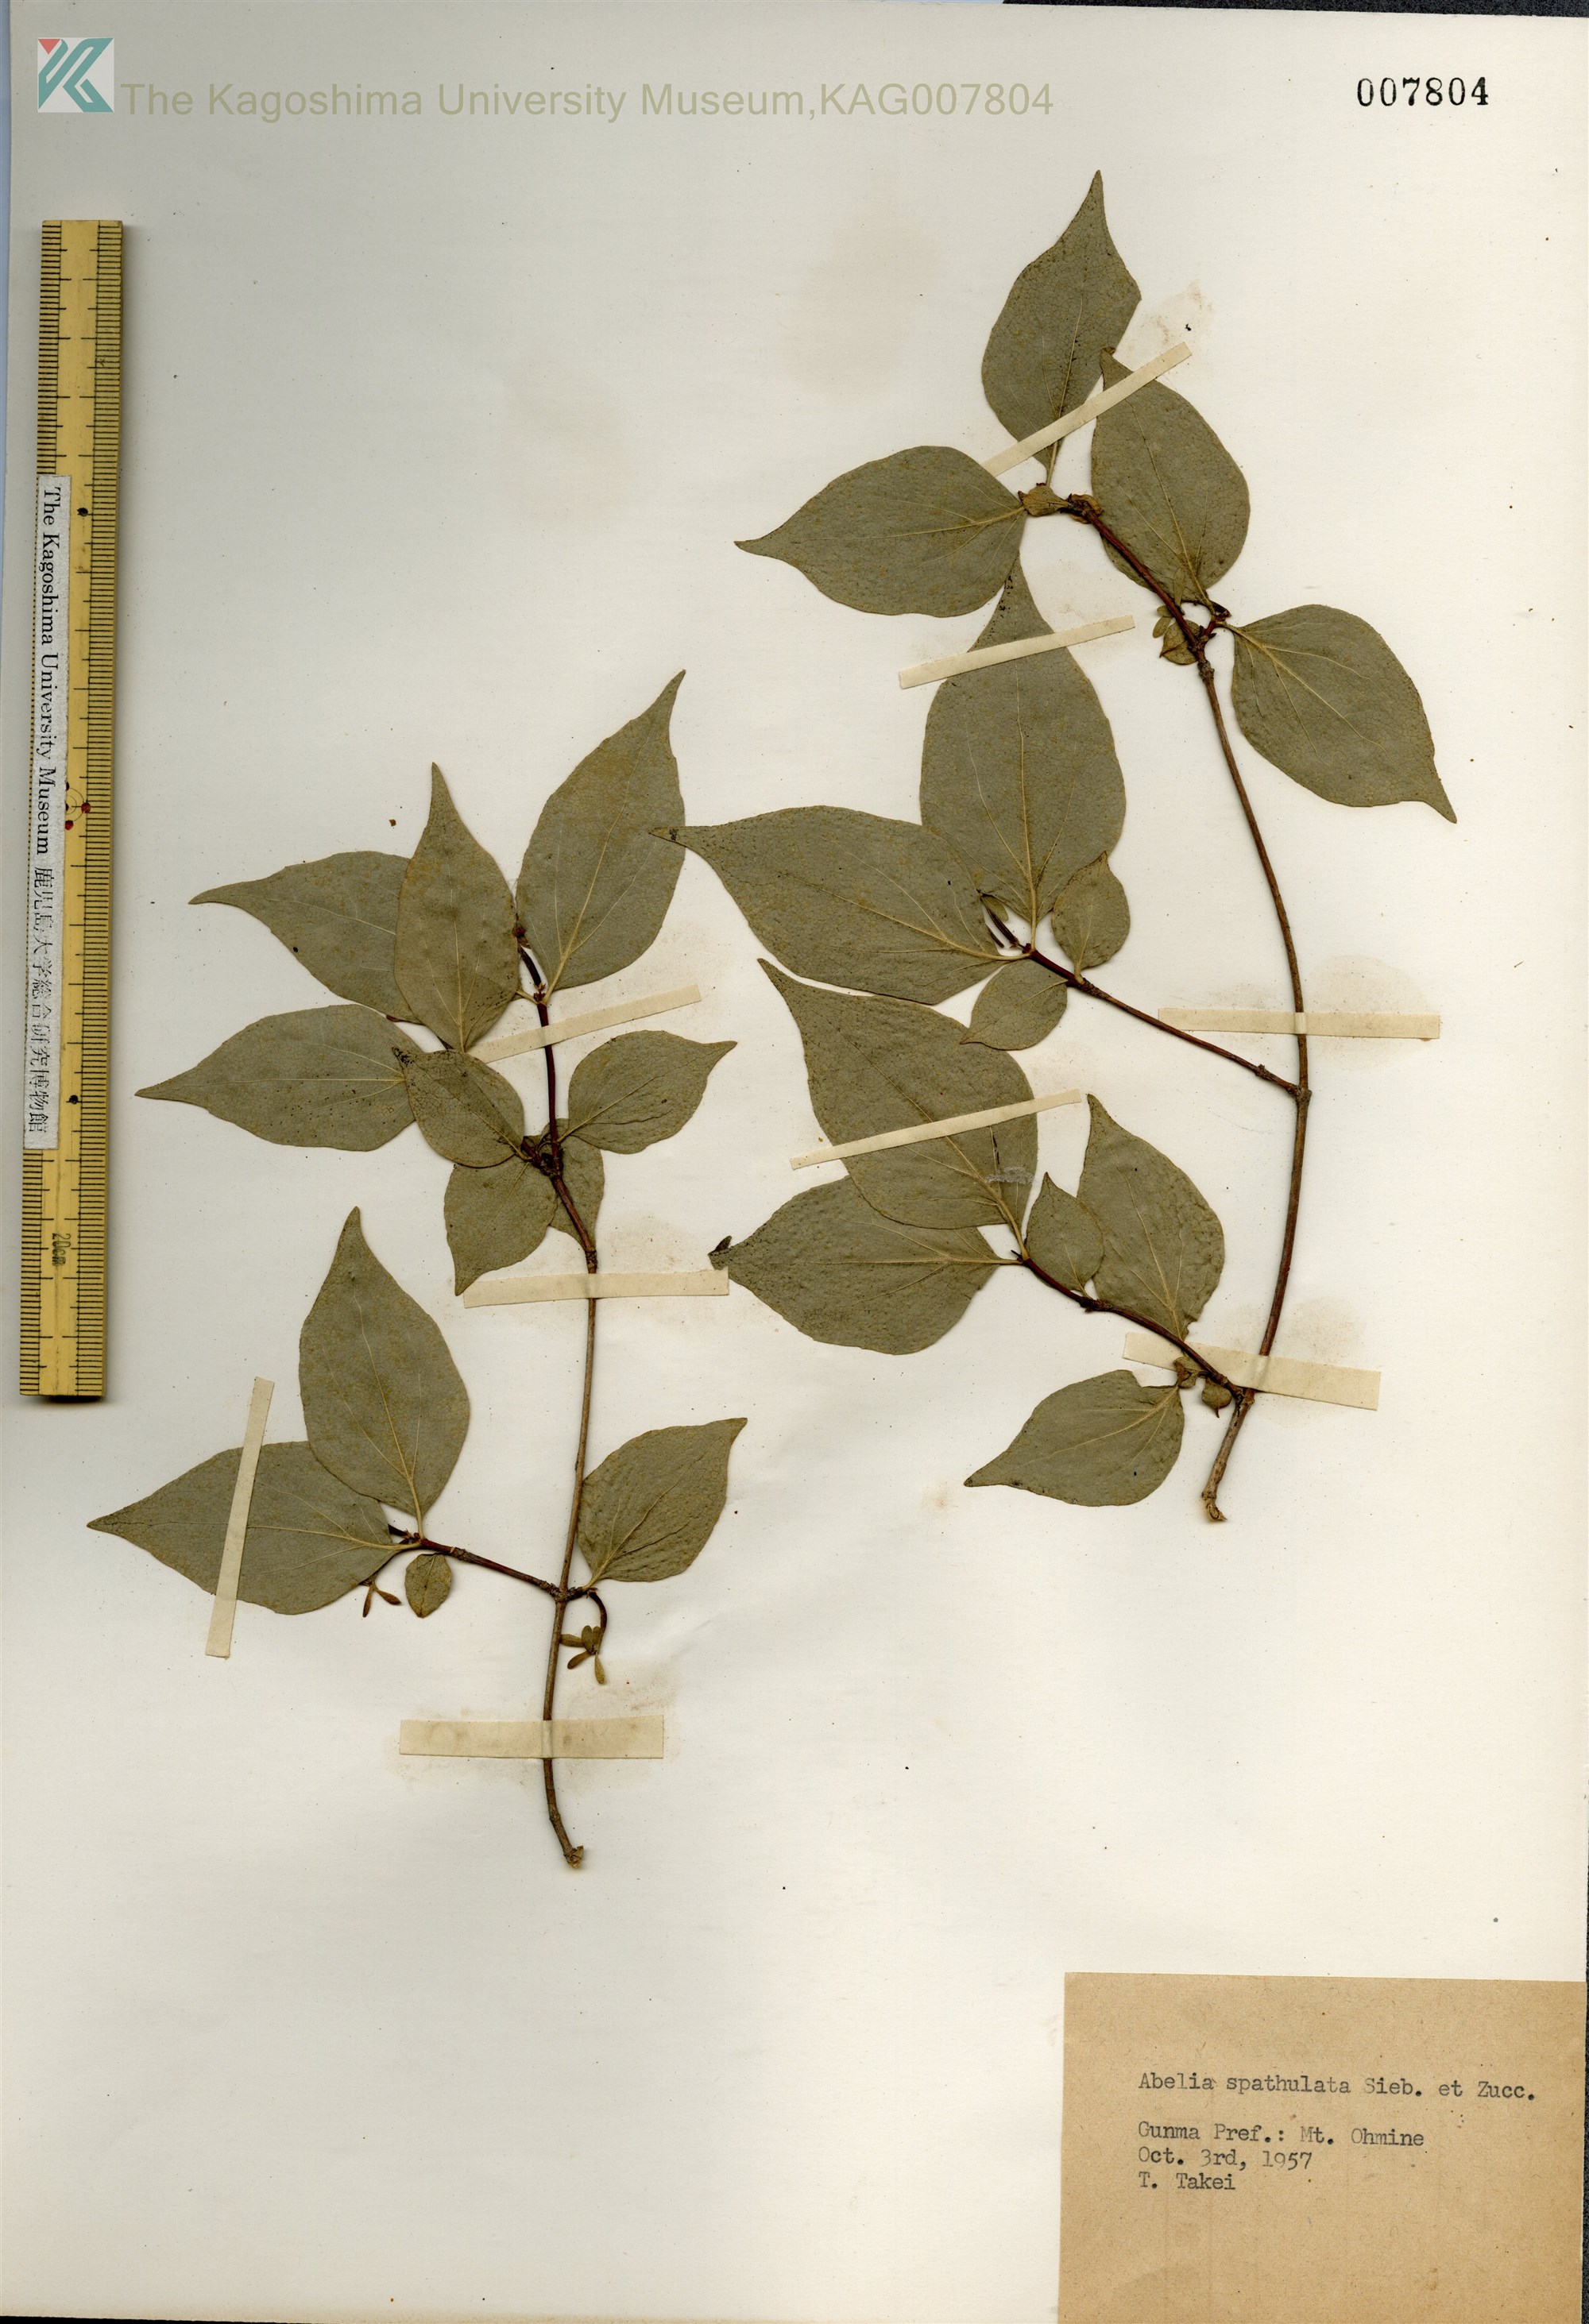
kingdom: Plantae
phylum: Tracheophyta
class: Magnoliopsida
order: Dipsacales
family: Caprifoliaceae
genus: Diabelia
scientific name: Diabelia spathulata
